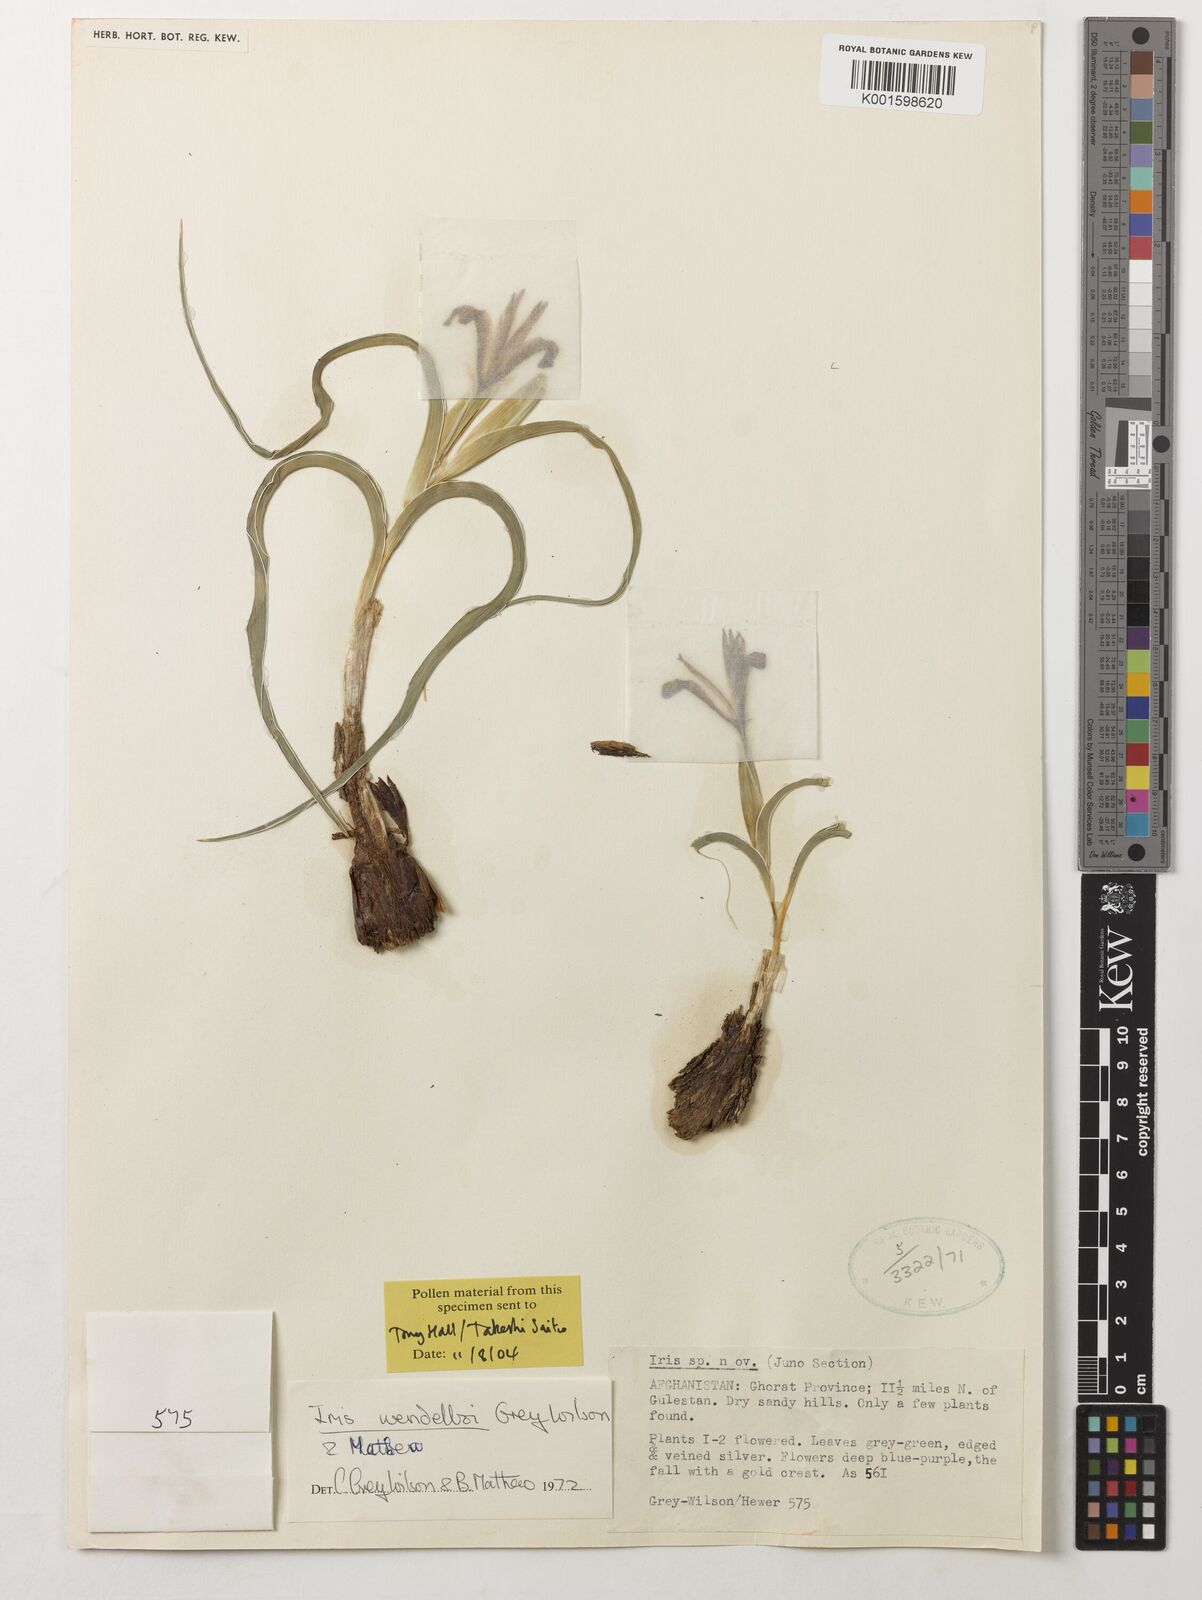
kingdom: Plantae
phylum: Tracheophyta
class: Liliopsida
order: Asparagales
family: Iridaceae
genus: Iris
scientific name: Iris wendelboi
